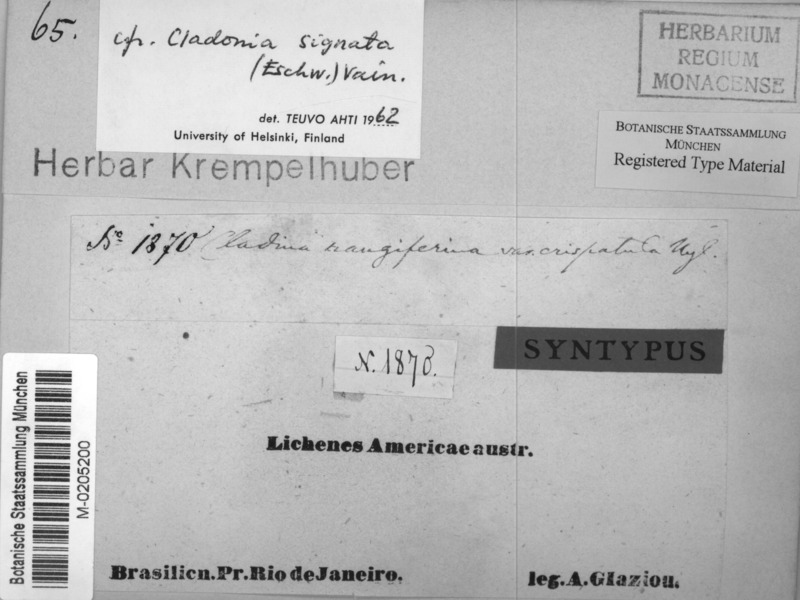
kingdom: Fungi
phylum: Ascomycota
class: Lecanoromycetes
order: Lecanorales
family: Cladoniaceae
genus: Cladonia
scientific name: Cladonia crispatula
